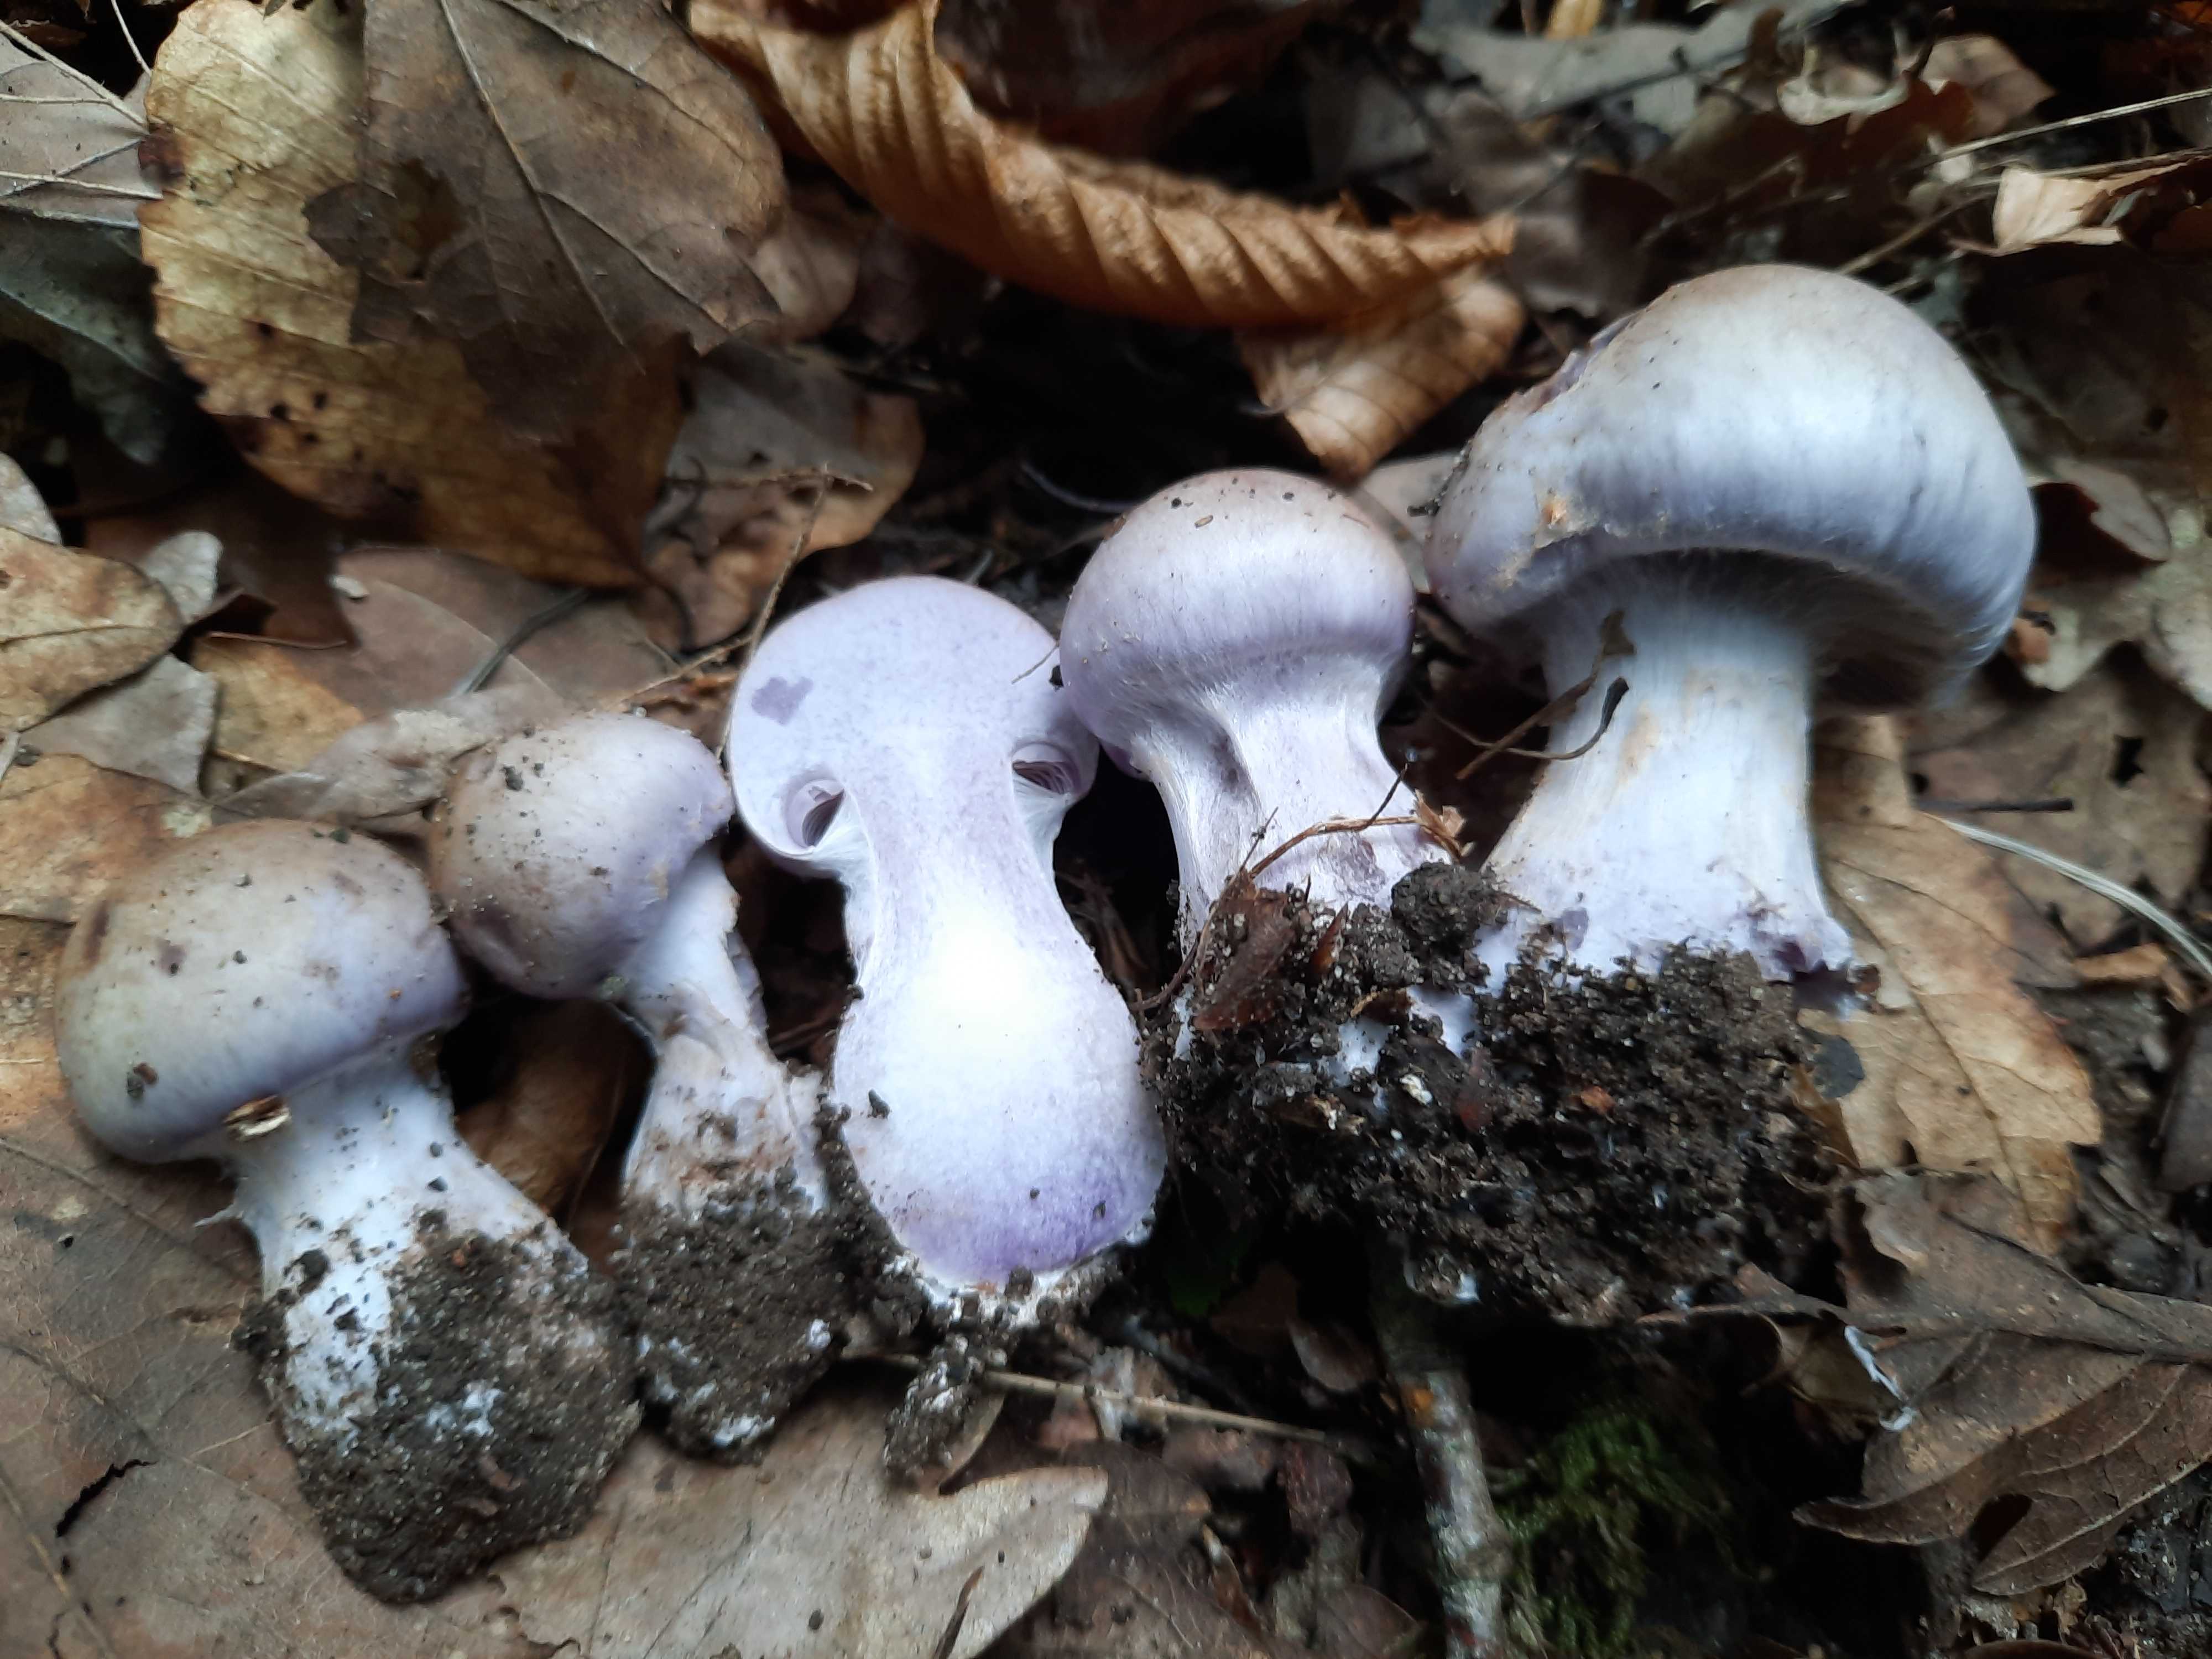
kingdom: Fungi
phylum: Basidiomycota
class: Agaricomycetes
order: Agaricales
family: Cortinariaceae
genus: Cortinarius
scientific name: Cortinarius largus
